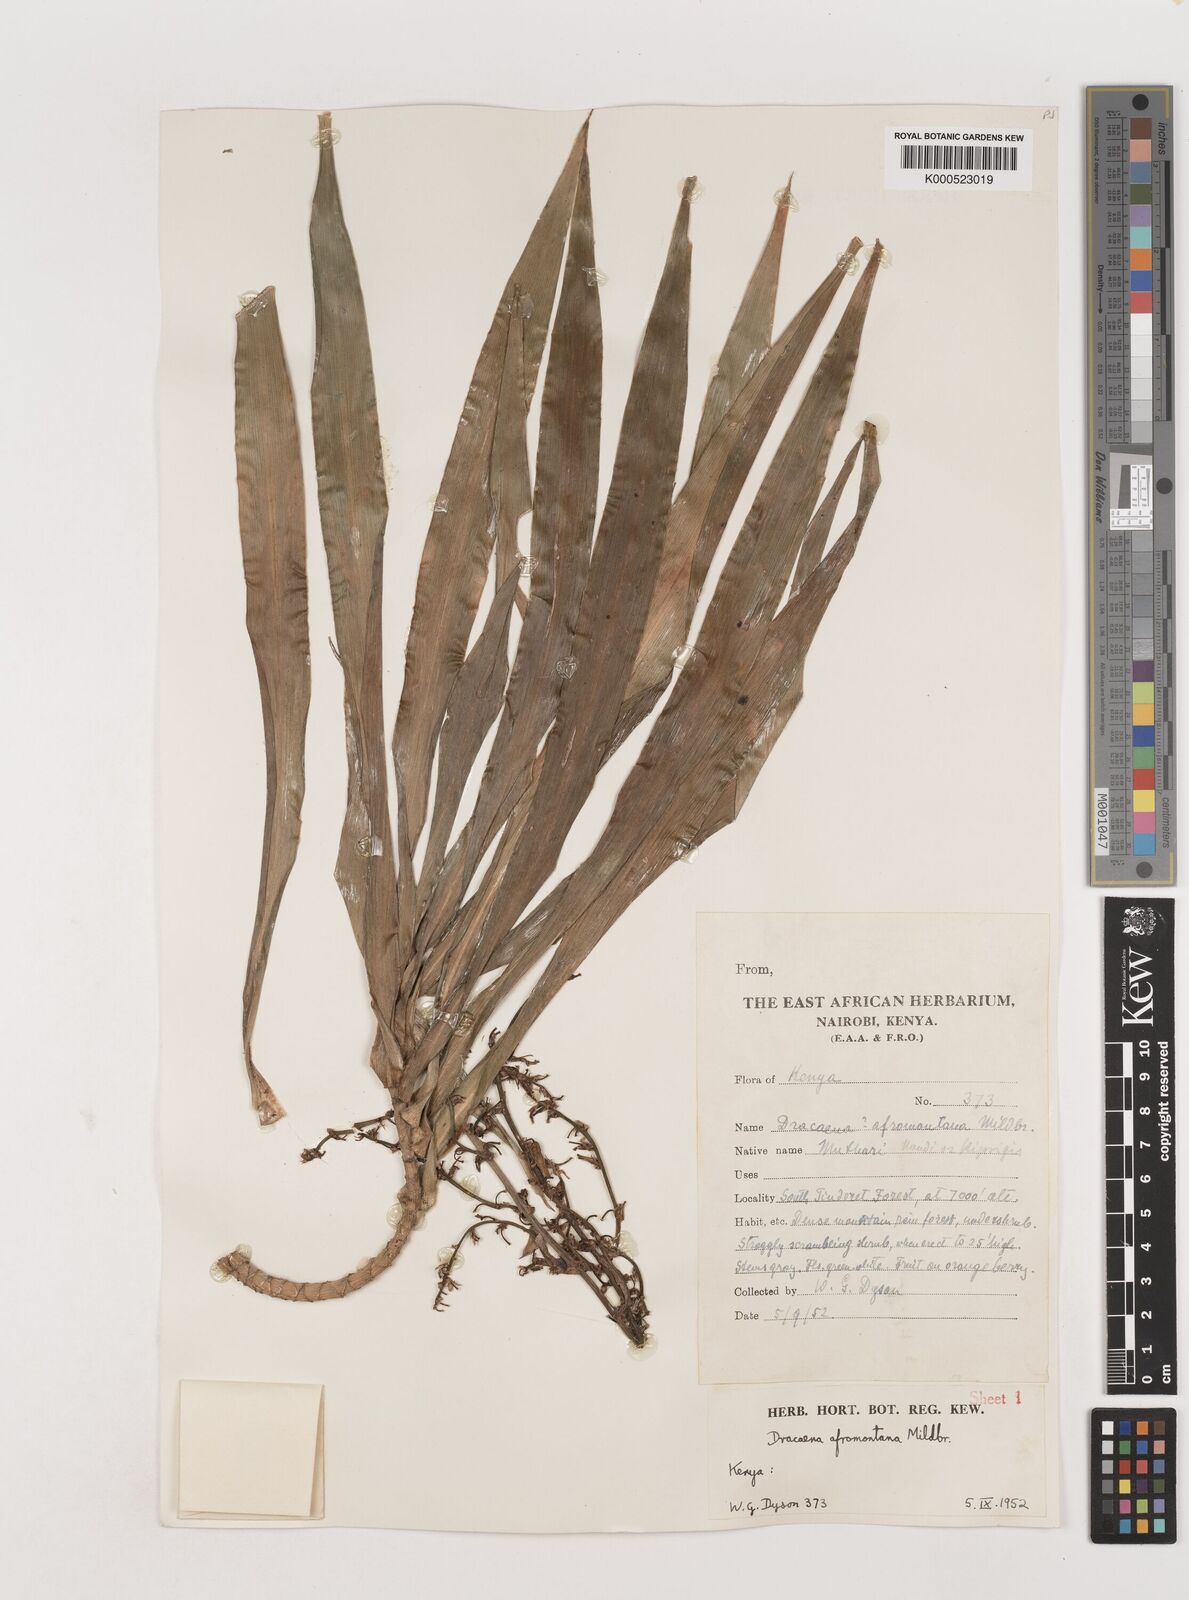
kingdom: Plantae
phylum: Tracheophyta
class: Liliopsida
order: Asparagales
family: Asparagaceae
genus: Dracaena
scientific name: Dracaena afromontana
